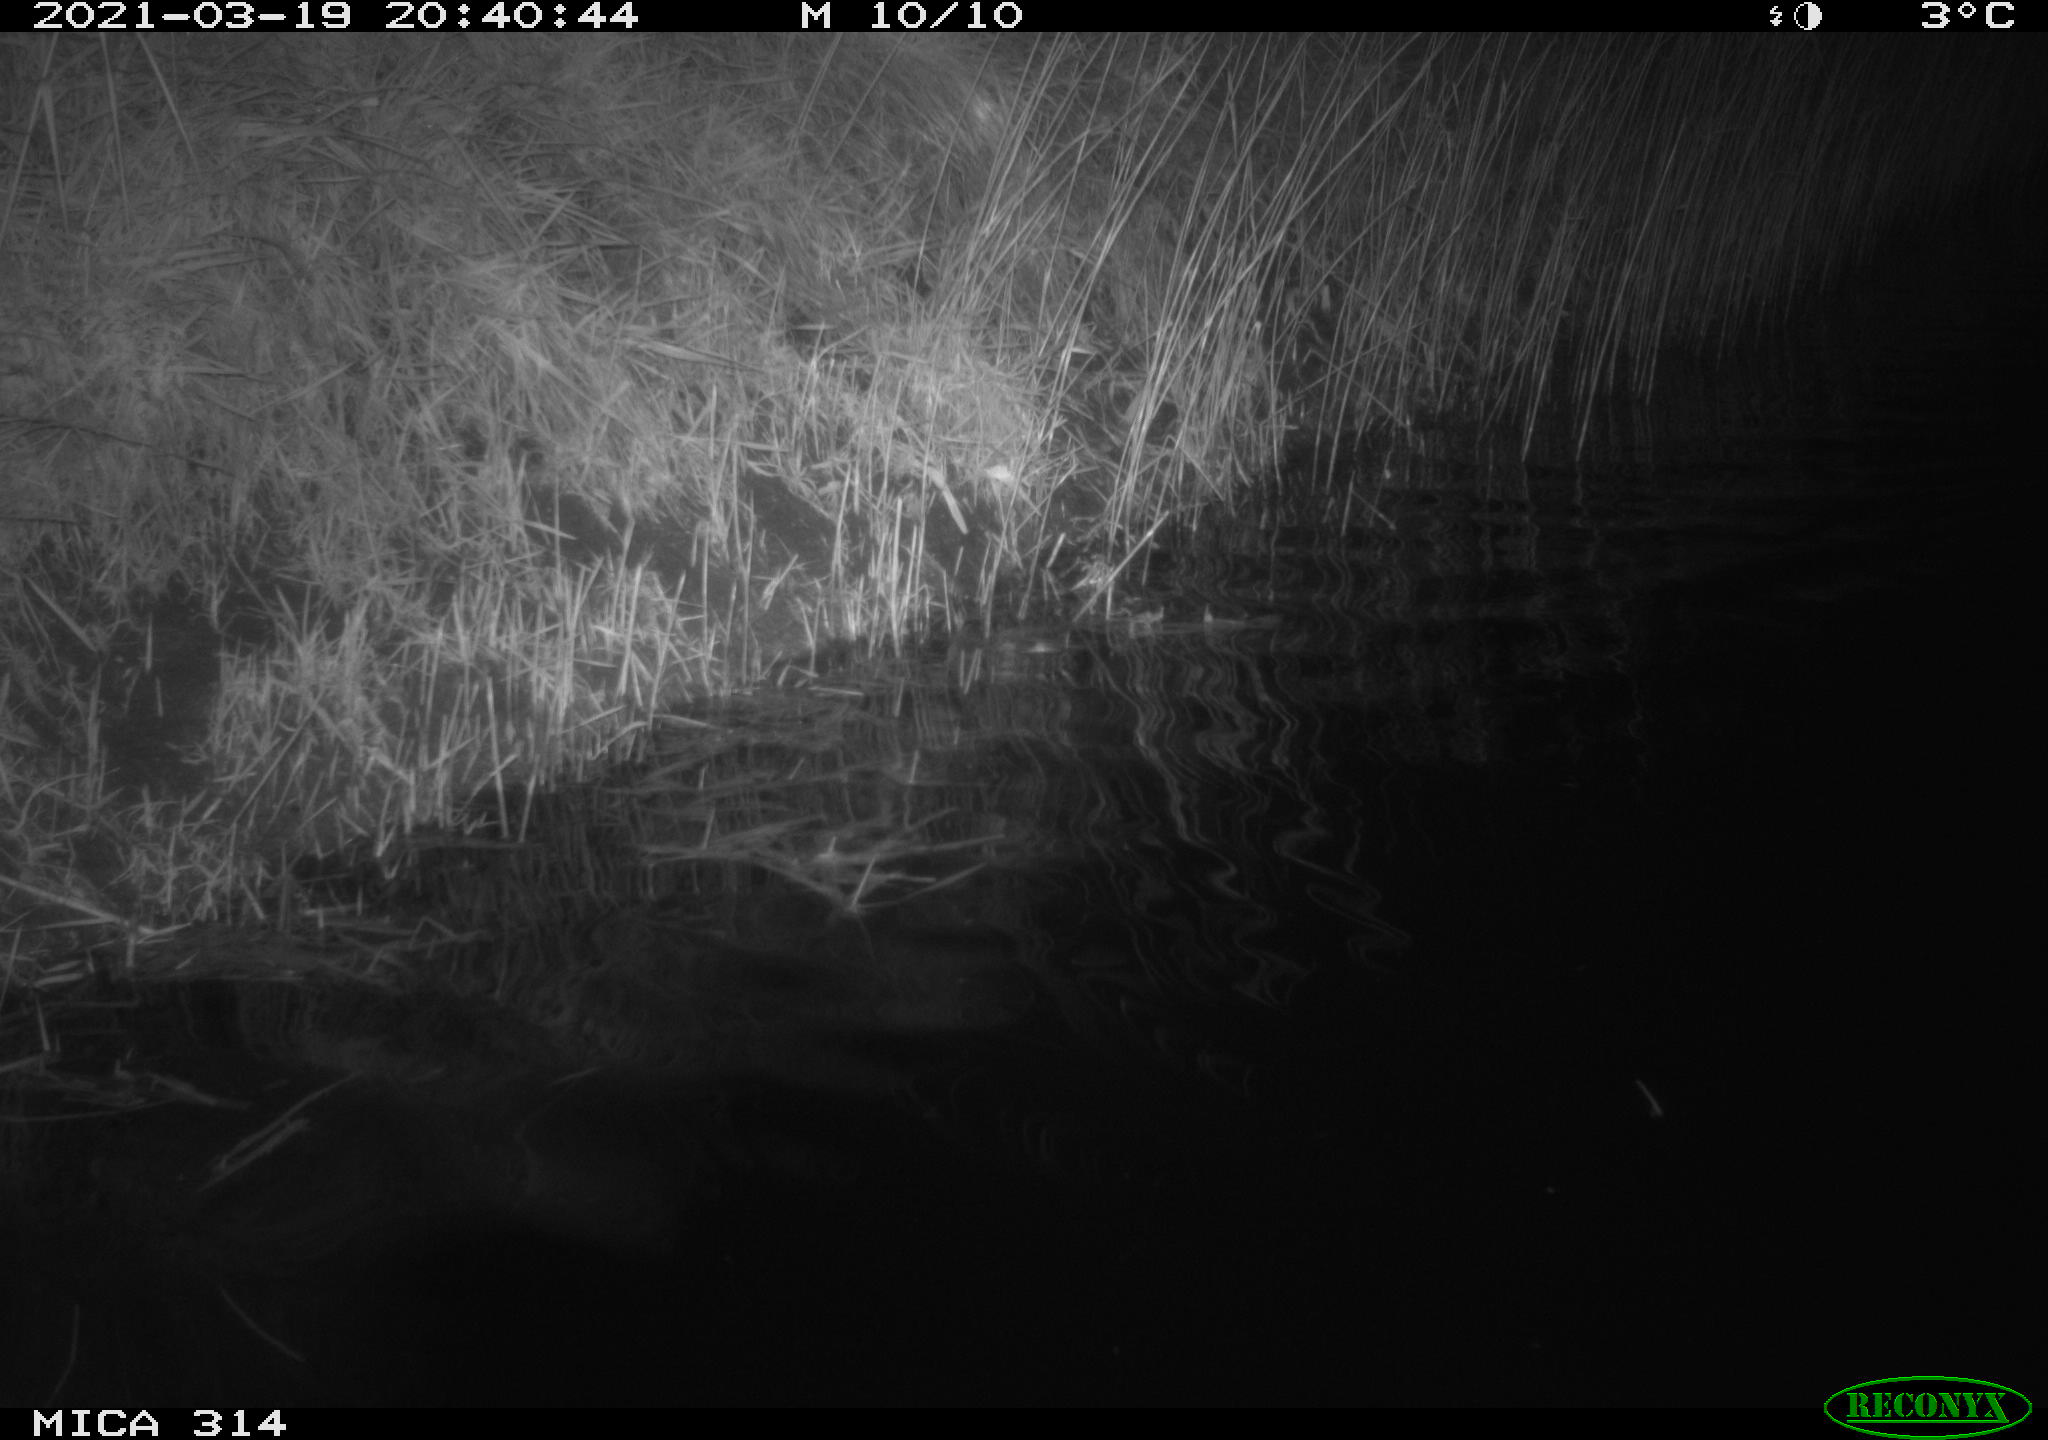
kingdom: Animalia
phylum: Chordata
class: Aves
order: Gruiformes
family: Rallidae
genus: Fulica
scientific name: Fulica atra
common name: Eurasian coot
